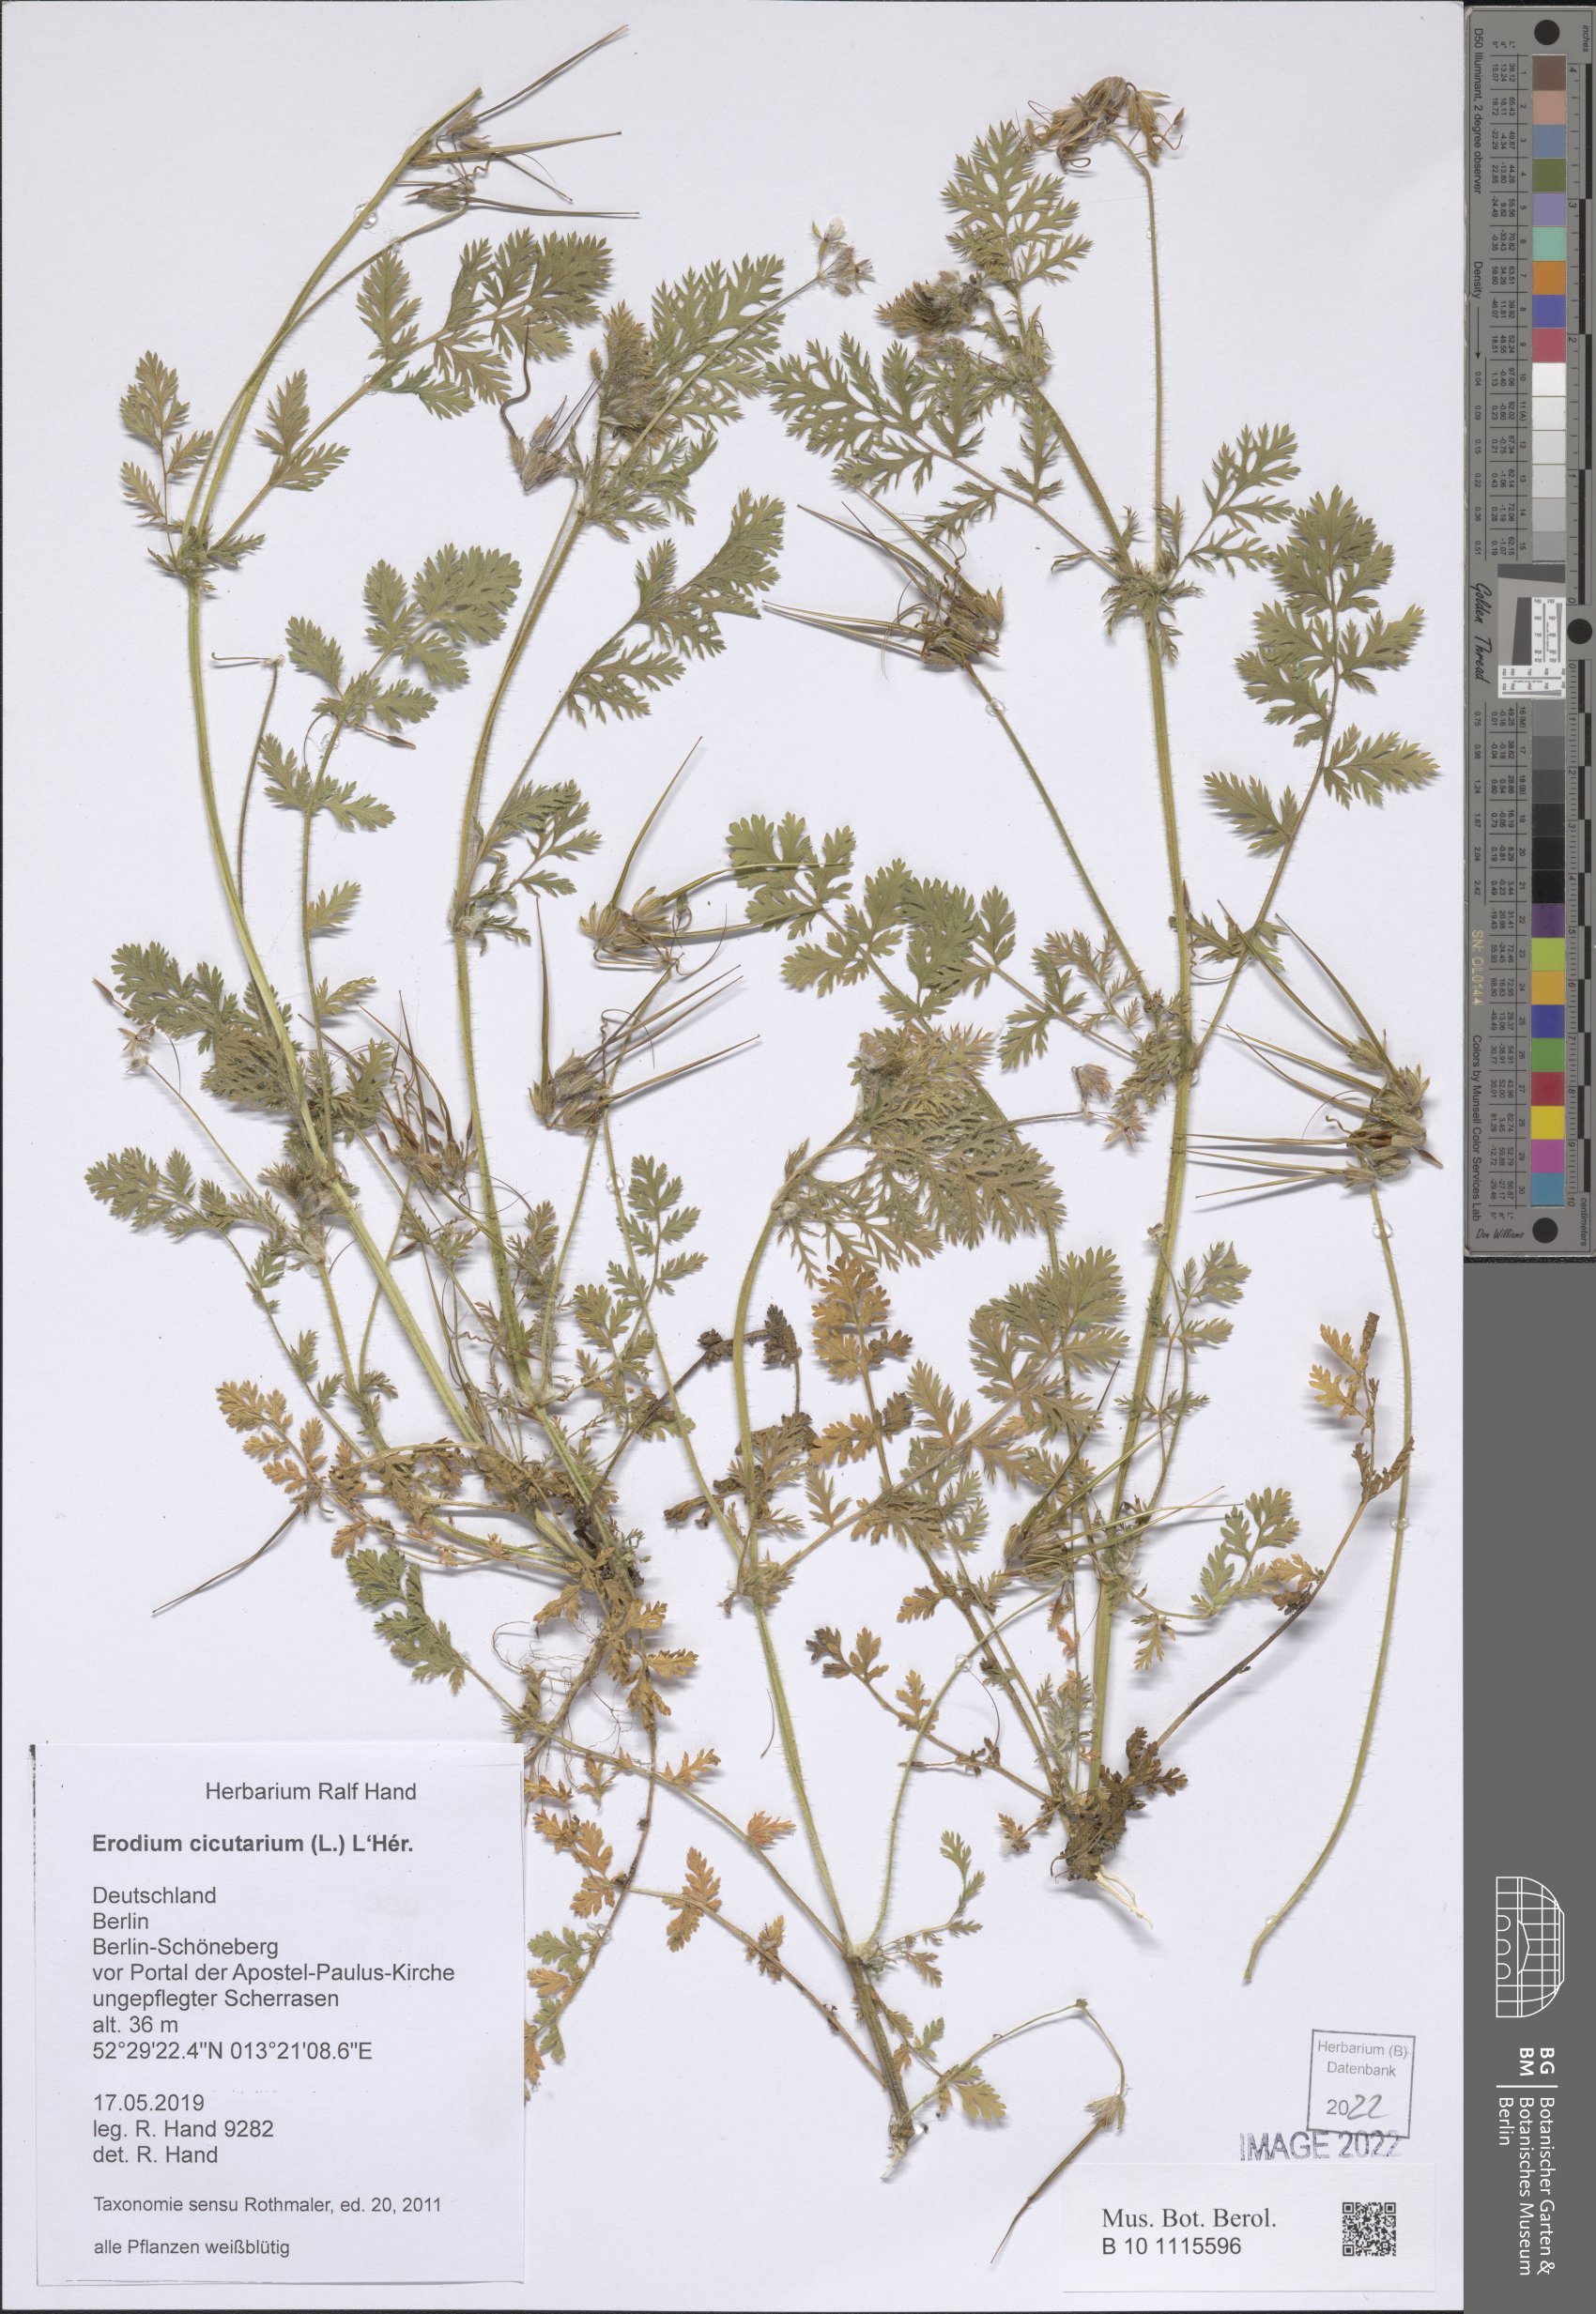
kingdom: Plantae
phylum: Tracheophyta
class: Magnoliopsida
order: Geraniales
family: Geraniaceae
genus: Erodium
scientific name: Erodium cicutarium
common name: Common stork's-bill
